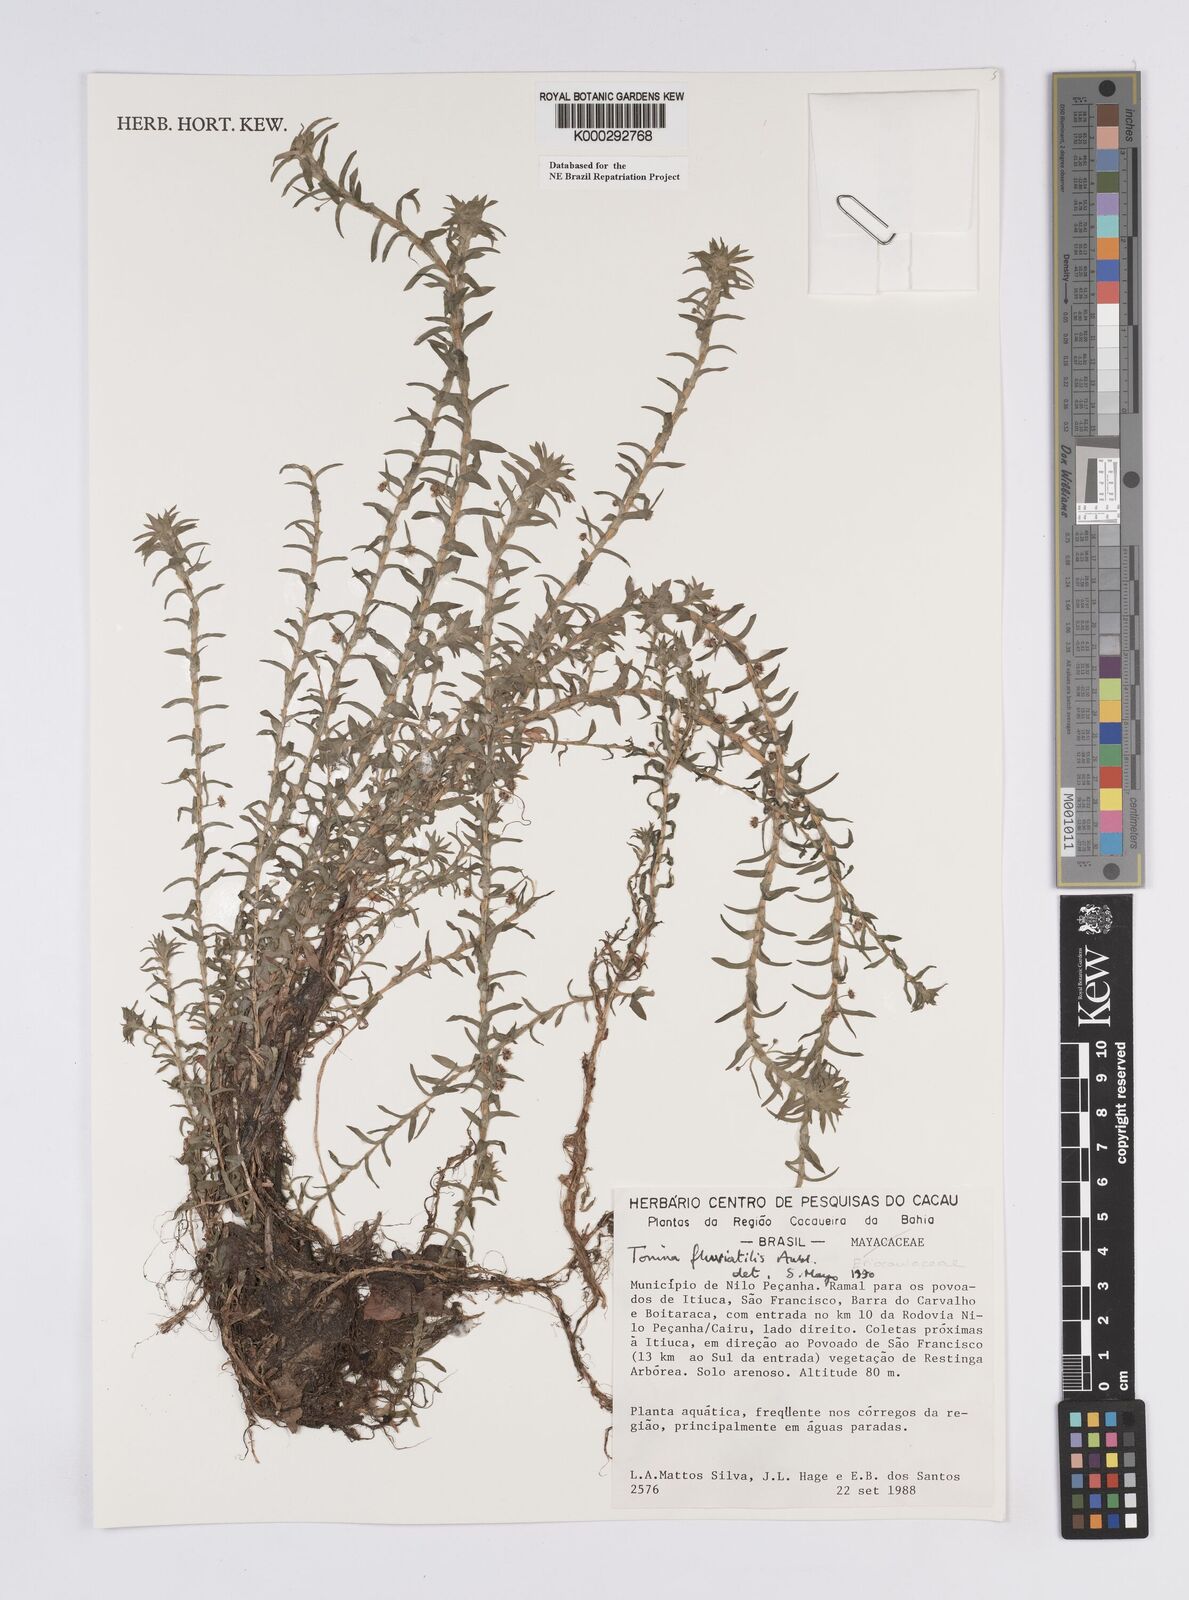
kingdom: Plantae
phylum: Tracheophyta
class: Liliopsida
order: Poales
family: Eriocaulaceae
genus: Paepalanthus
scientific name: Paepalanthus
